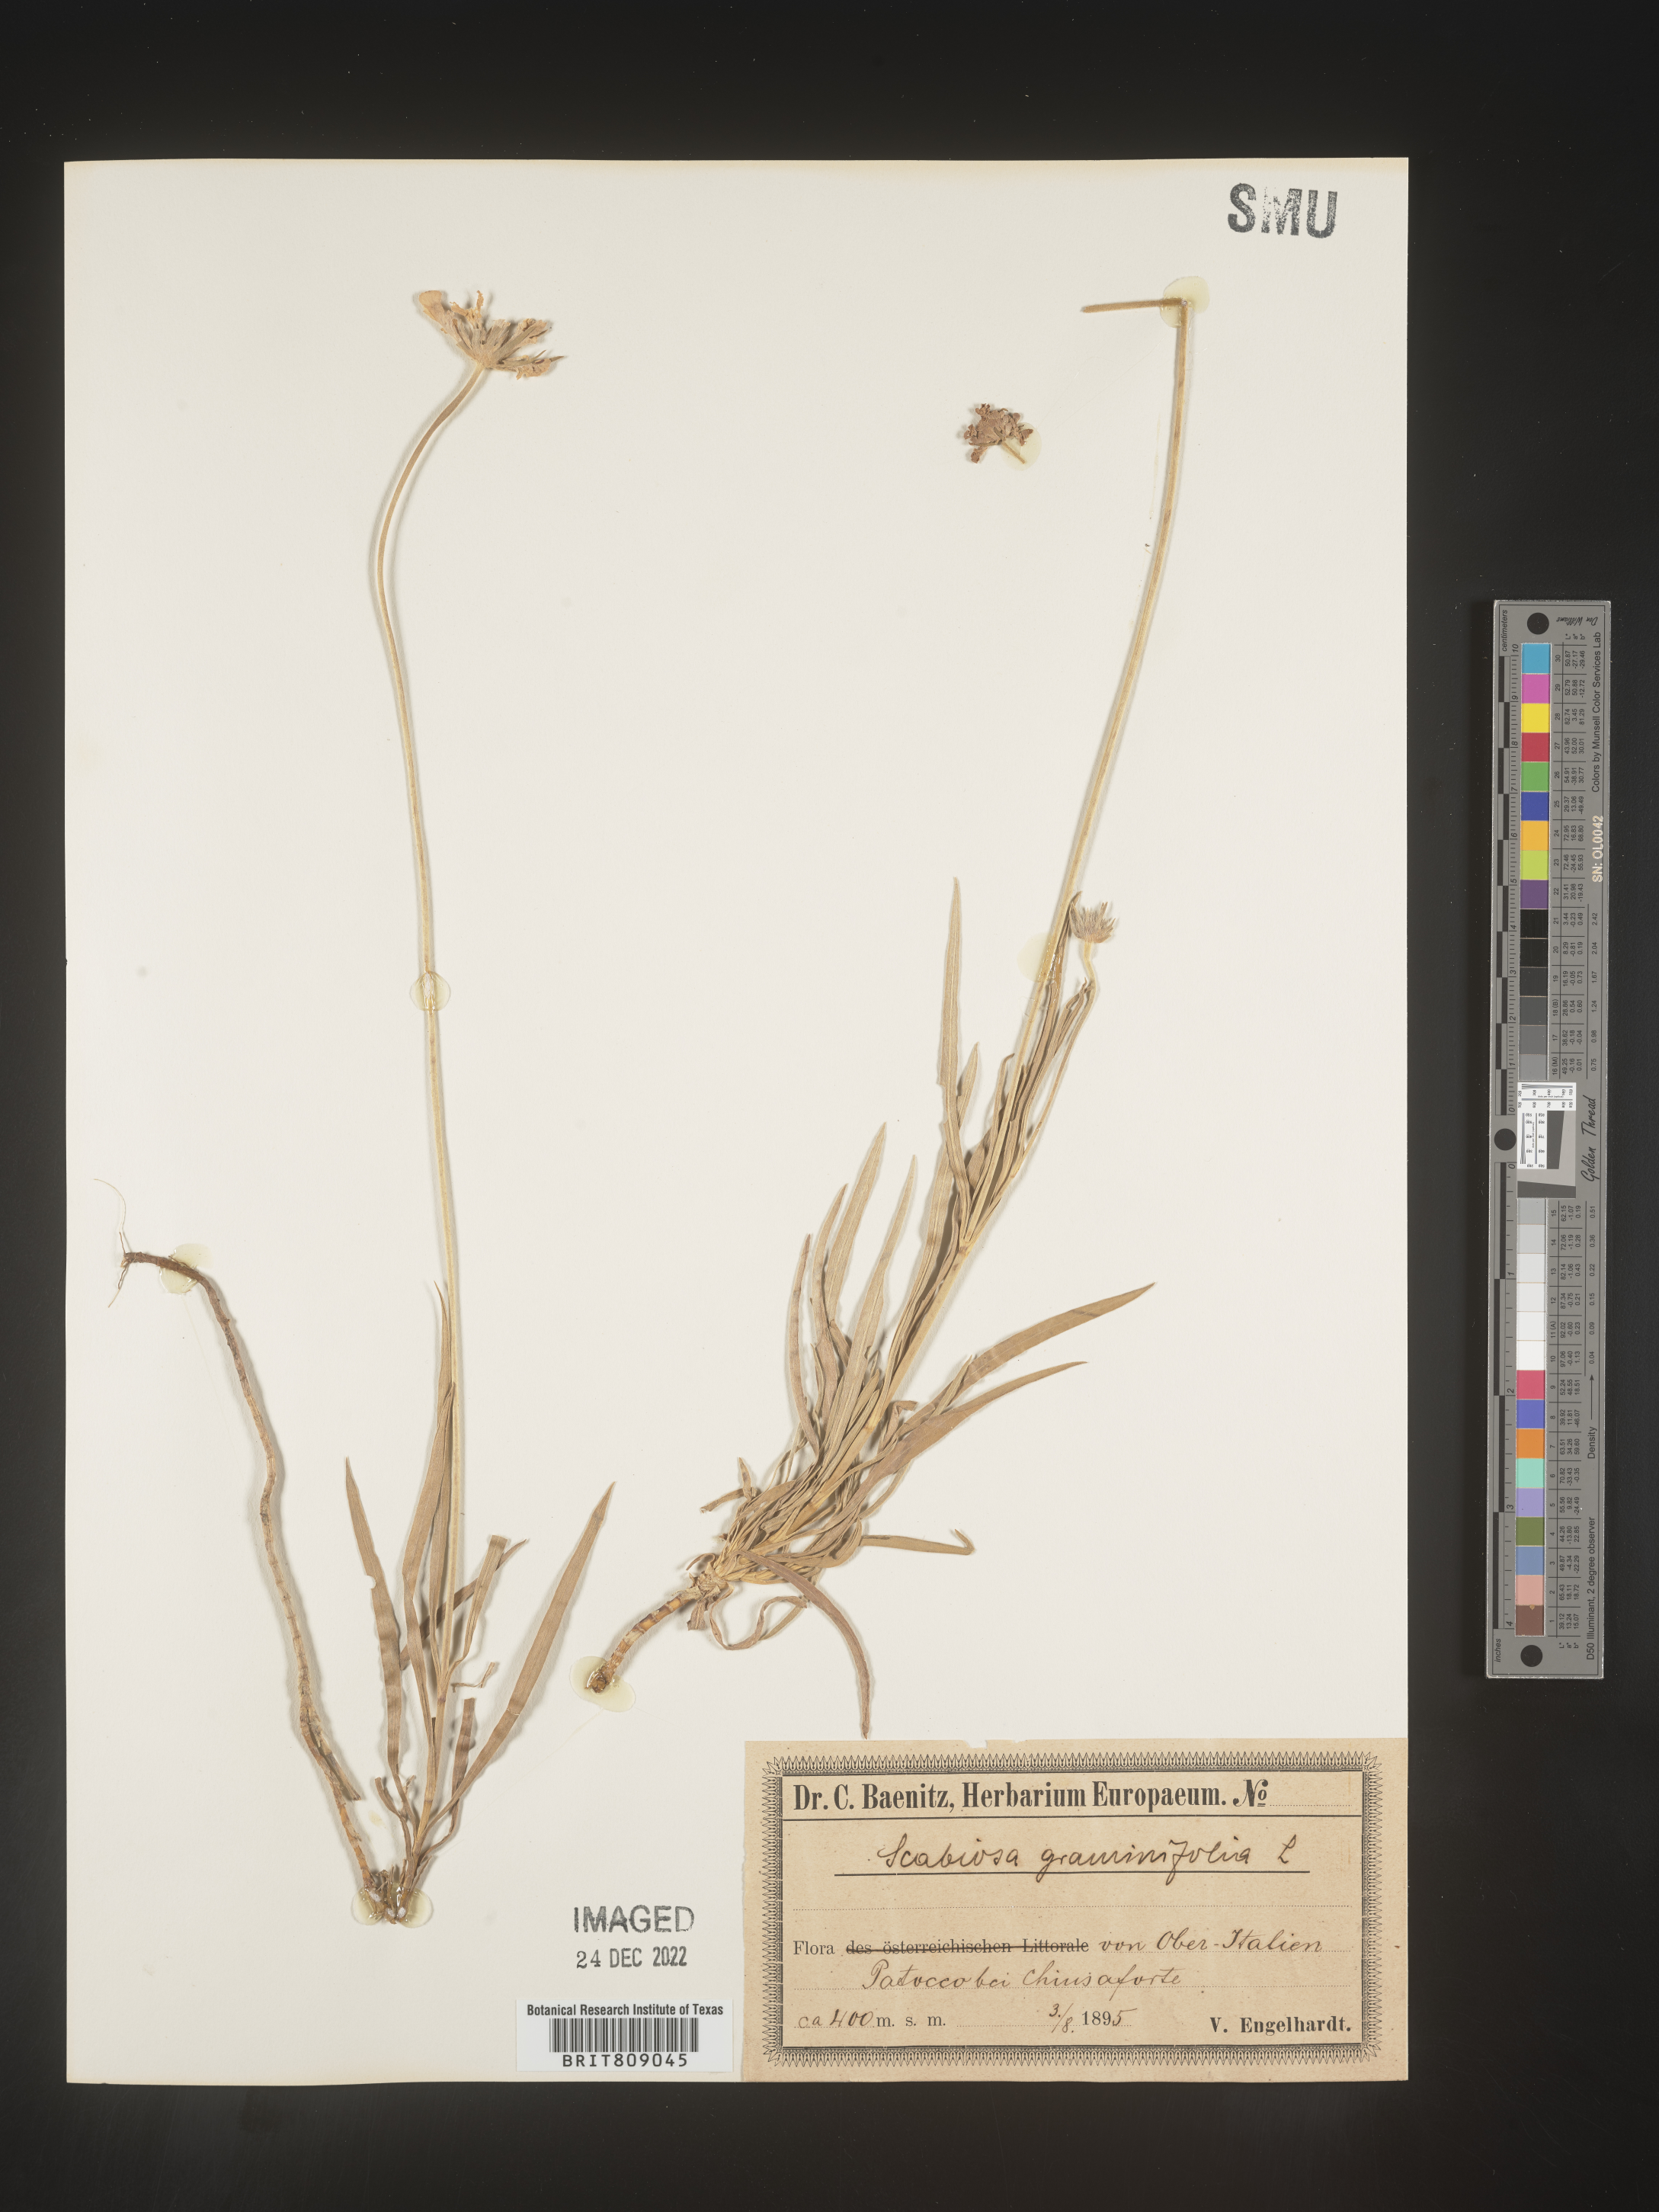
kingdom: Plantae
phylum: Tracheophyta
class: Magnoliopsida
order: Dipsacales
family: Caprifoliaceae
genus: Scabiosa
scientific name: Scabiosa
